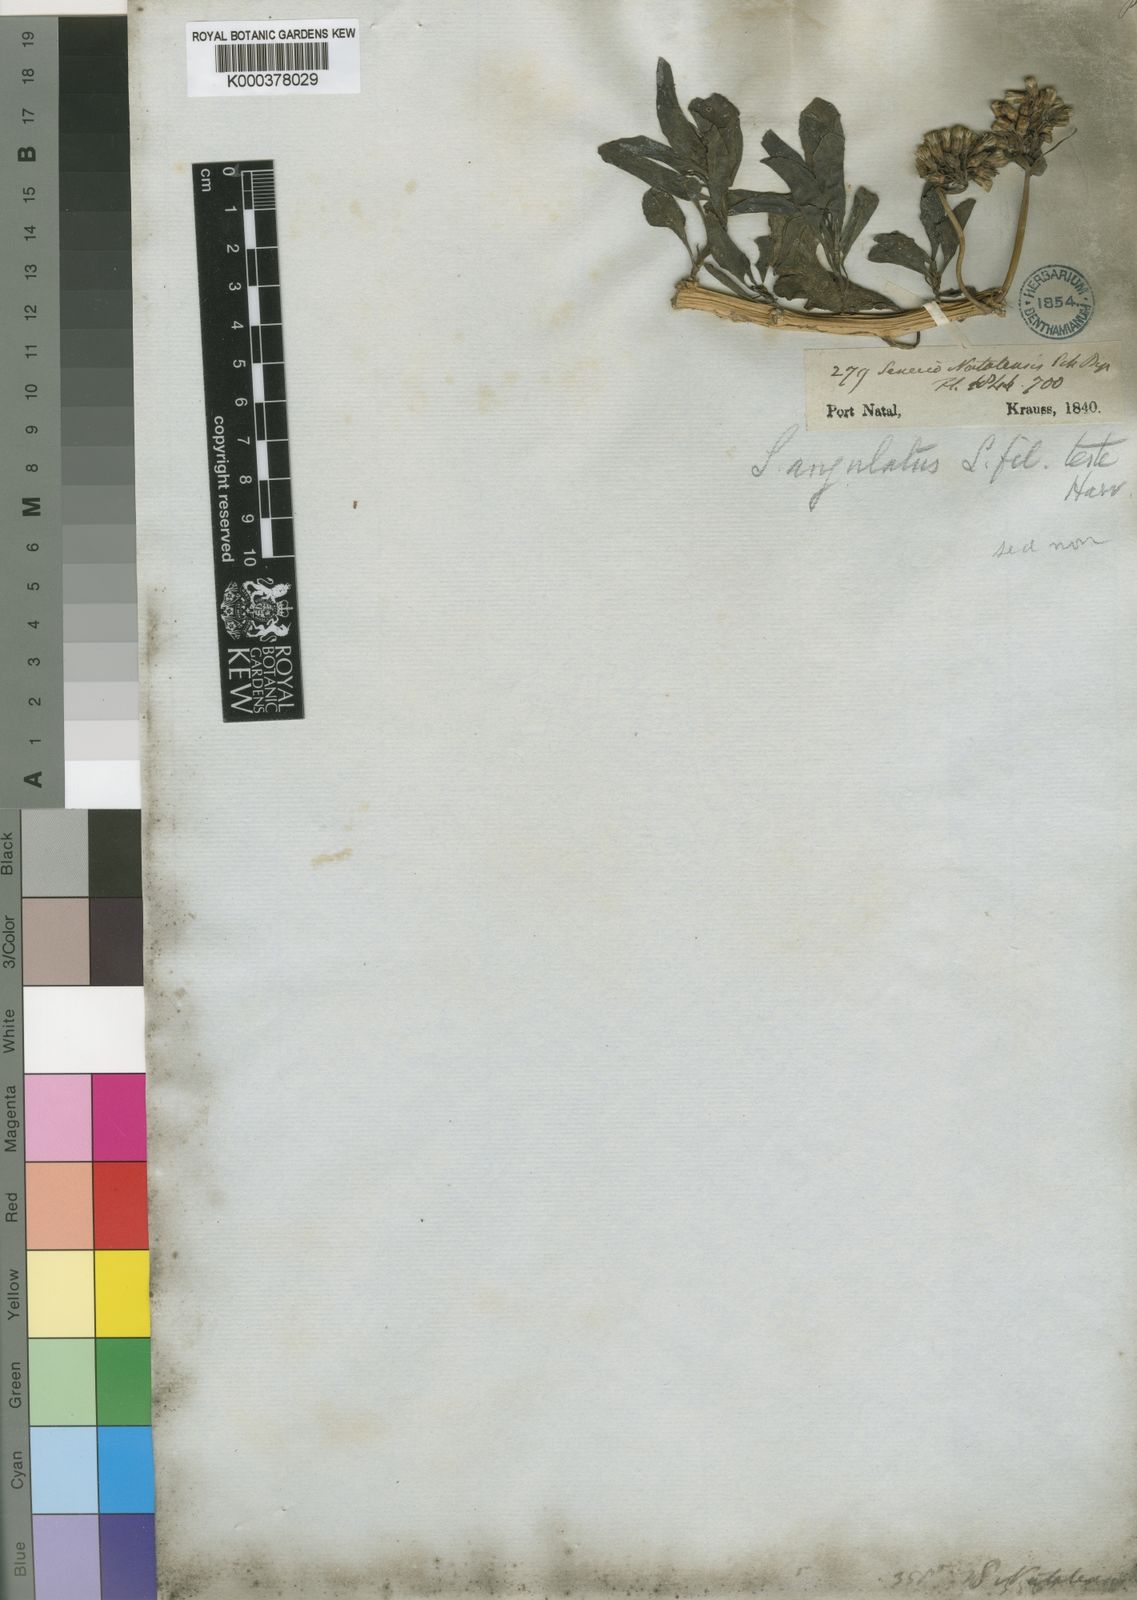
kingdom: Plantae
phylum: Tracheophyta
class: Magnoliopsida
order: Asterales
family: Asteraceae
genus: Senecio
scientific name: Senecio brachypodus
